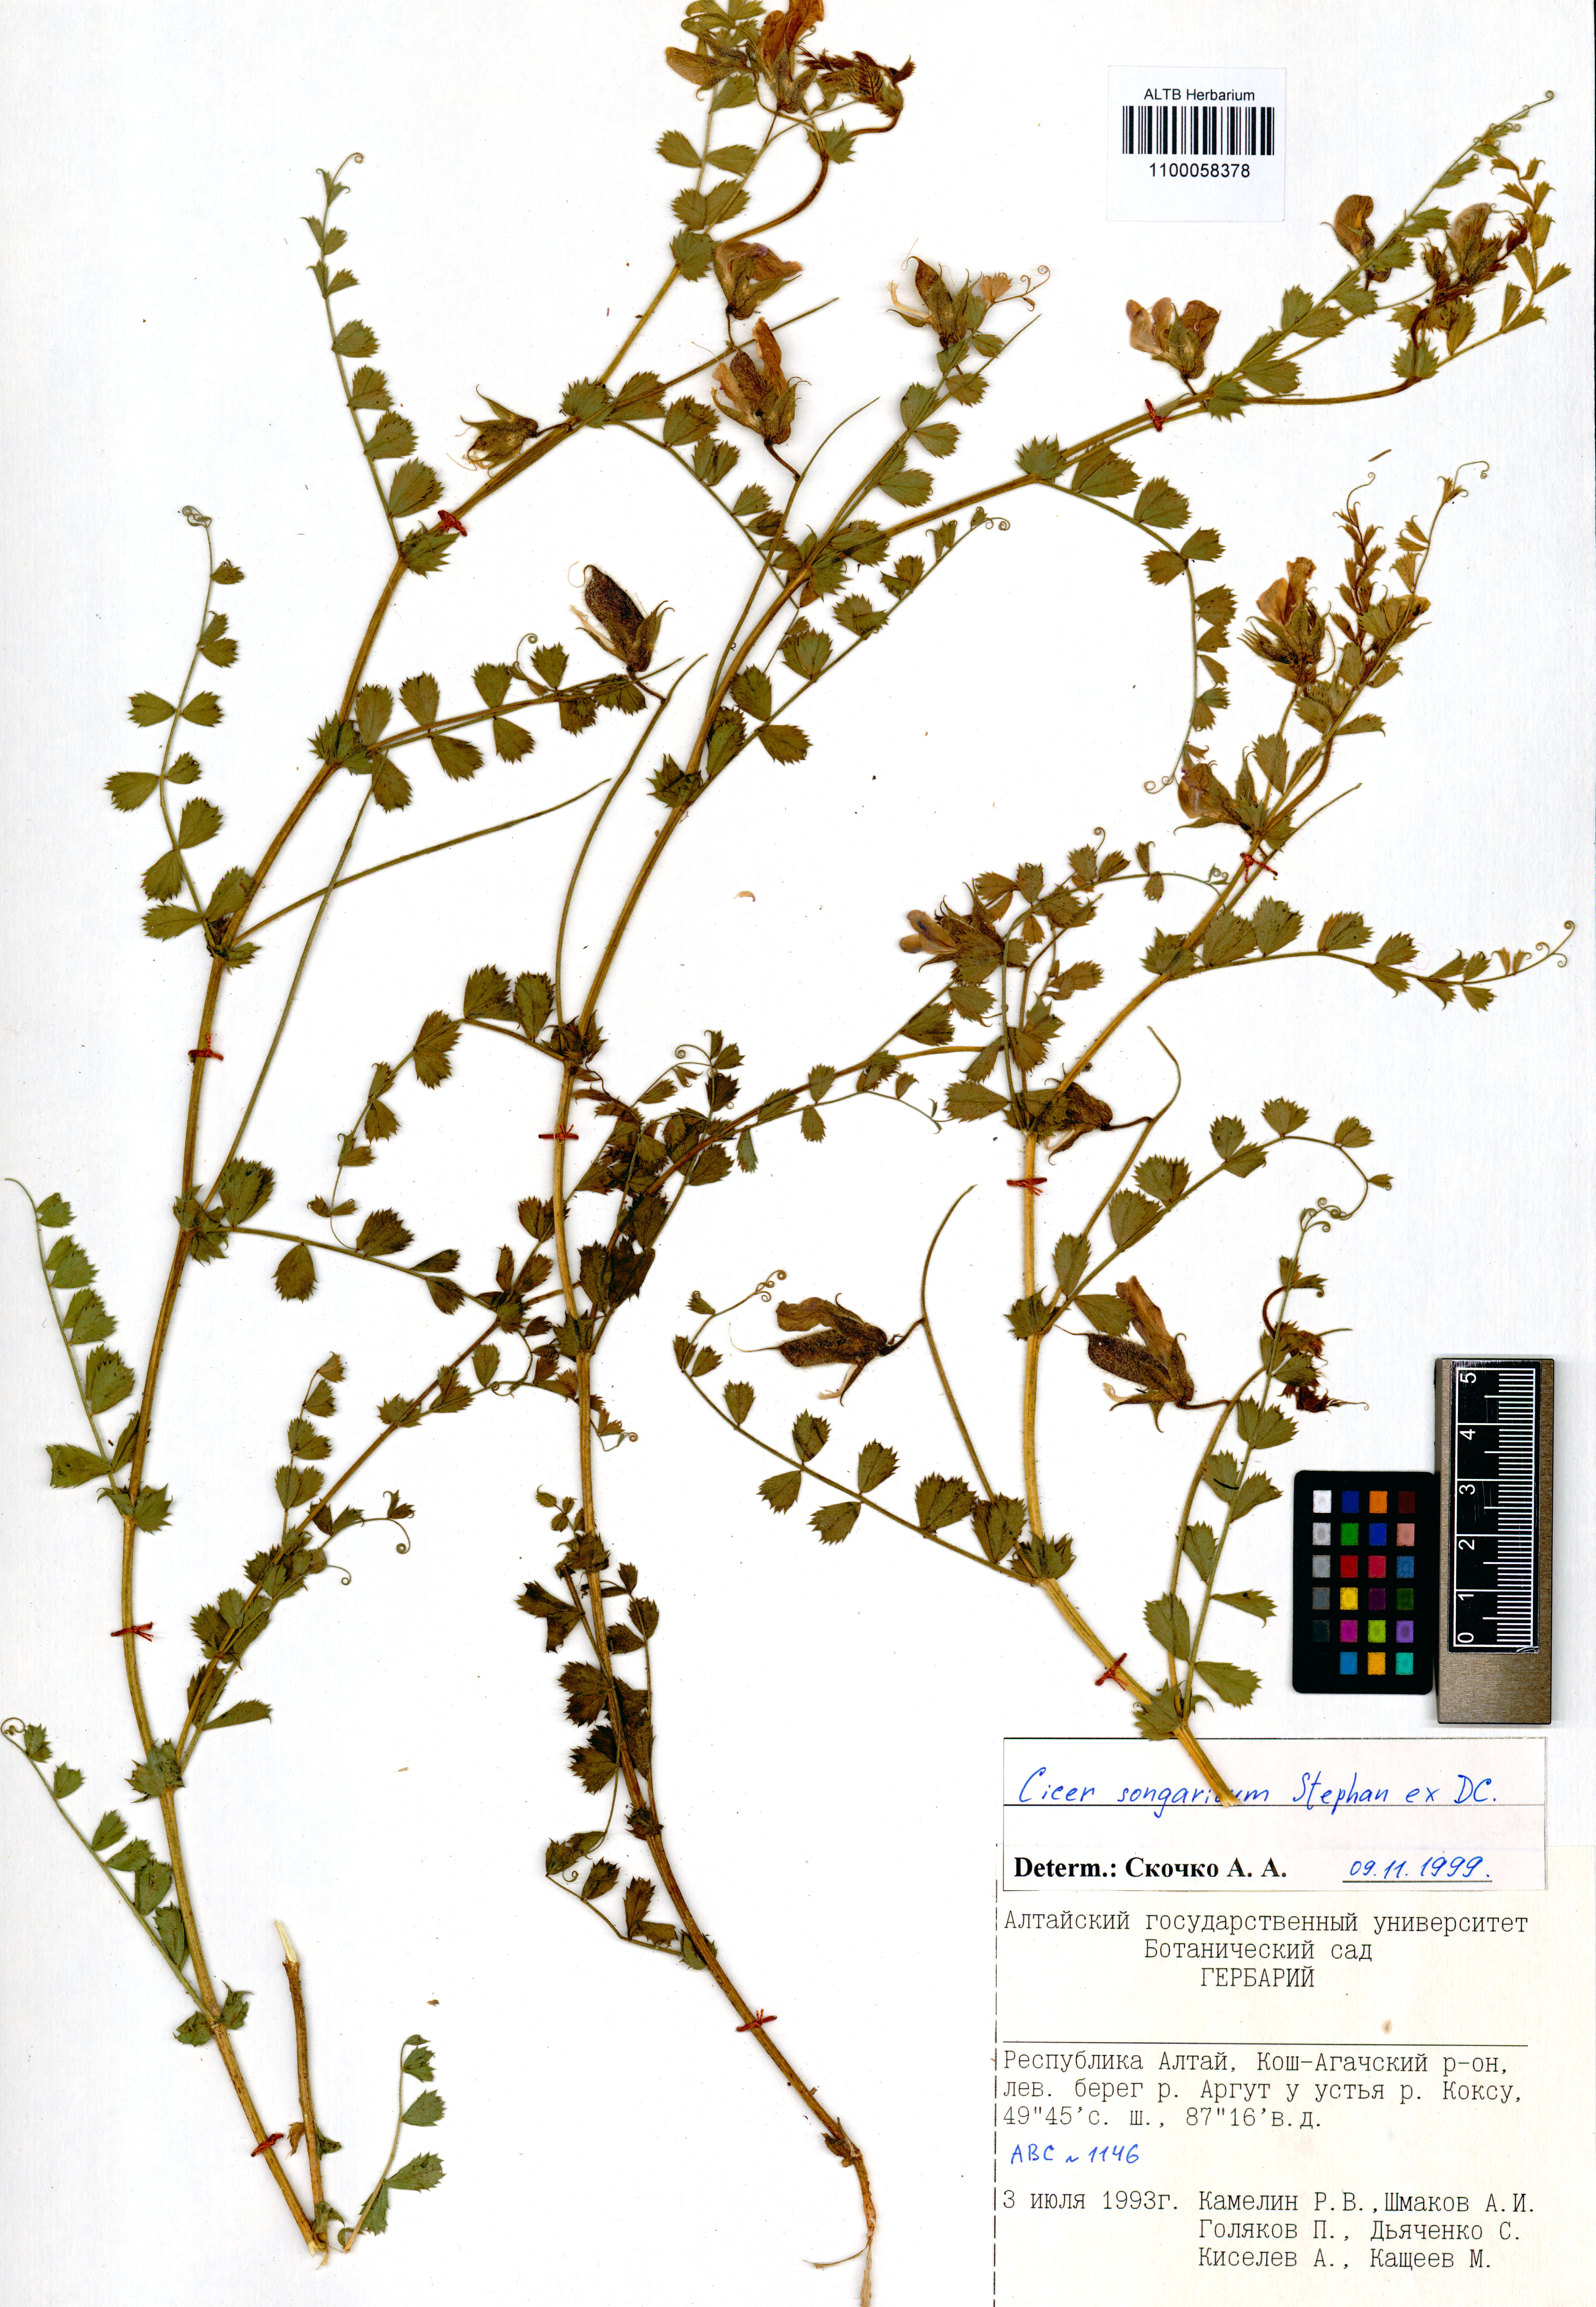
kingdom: Plantae
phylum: Tracheophyta
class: Magnoliopsida
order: Fabales
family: Fabaceae
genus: Cicer
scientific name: Cicer songaricum
